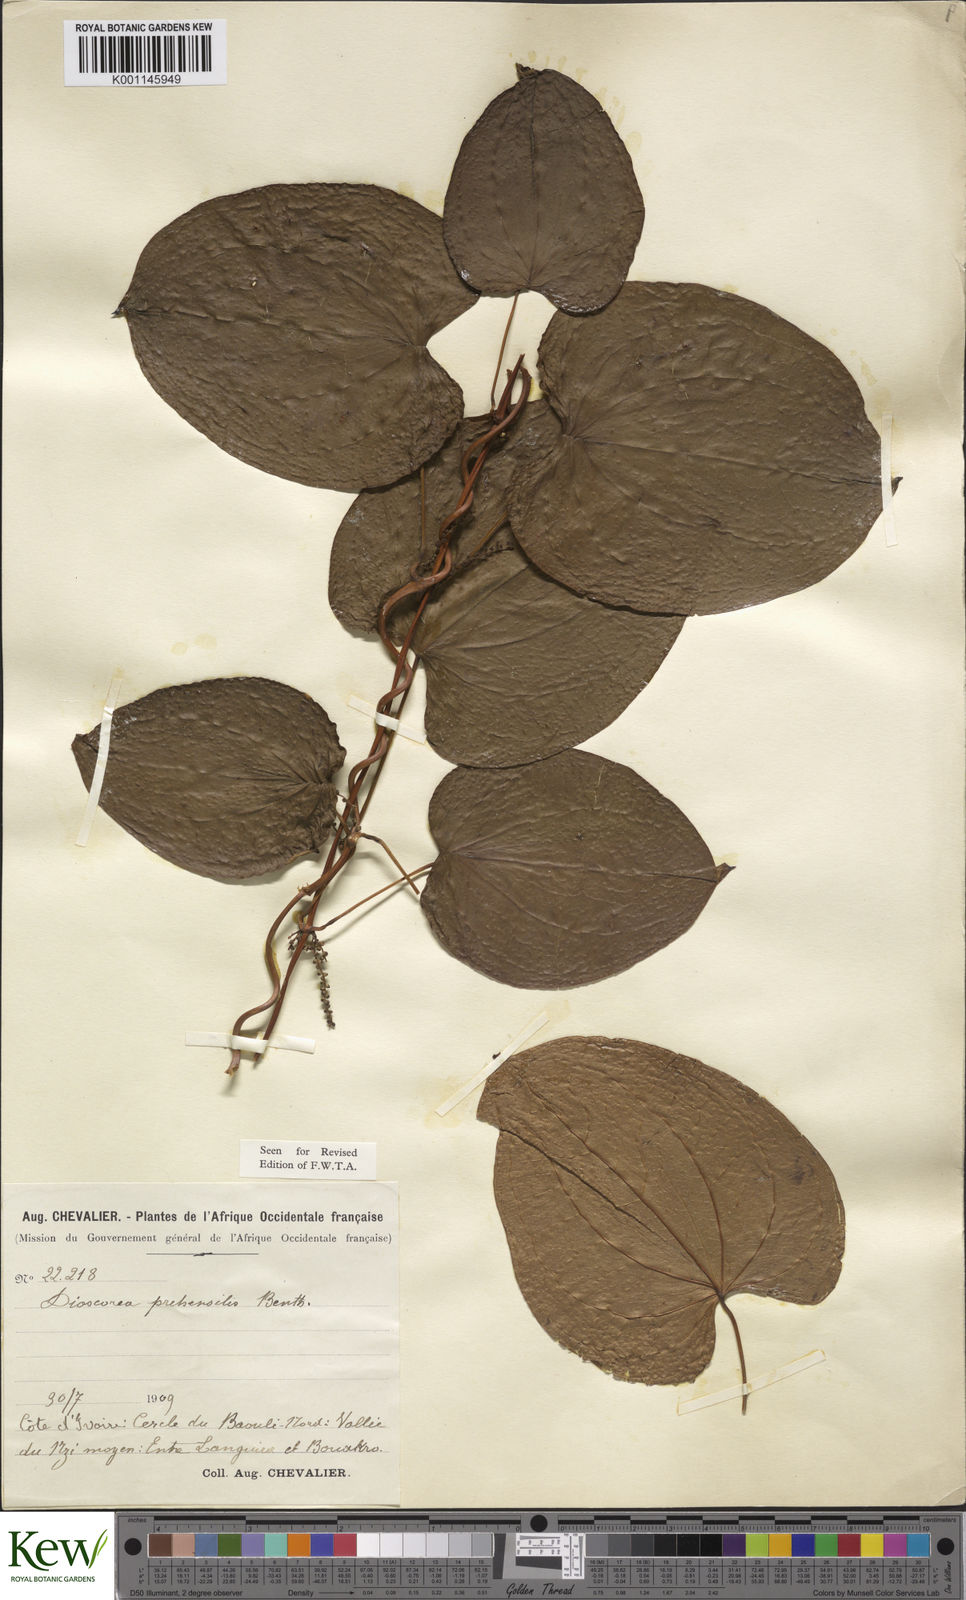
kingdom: Plantae
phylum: Tracheophyta
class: Liliopsida
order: Dioscoreales
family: Dioscoreaceae
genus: Dioscorea
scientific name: Dioscorea praehensilis
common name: Bush yam
